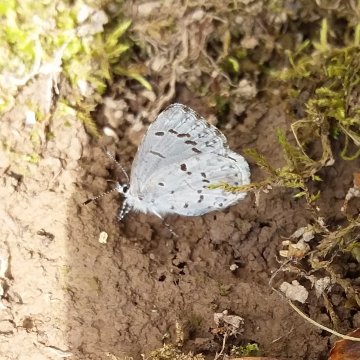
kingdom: Animalia
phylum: Arthropoda
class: Insecta
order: Lepidoptera
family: Lycaenidae
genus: Celastrina
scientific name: Celastrina serotina
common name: Cherry Gall Azure
